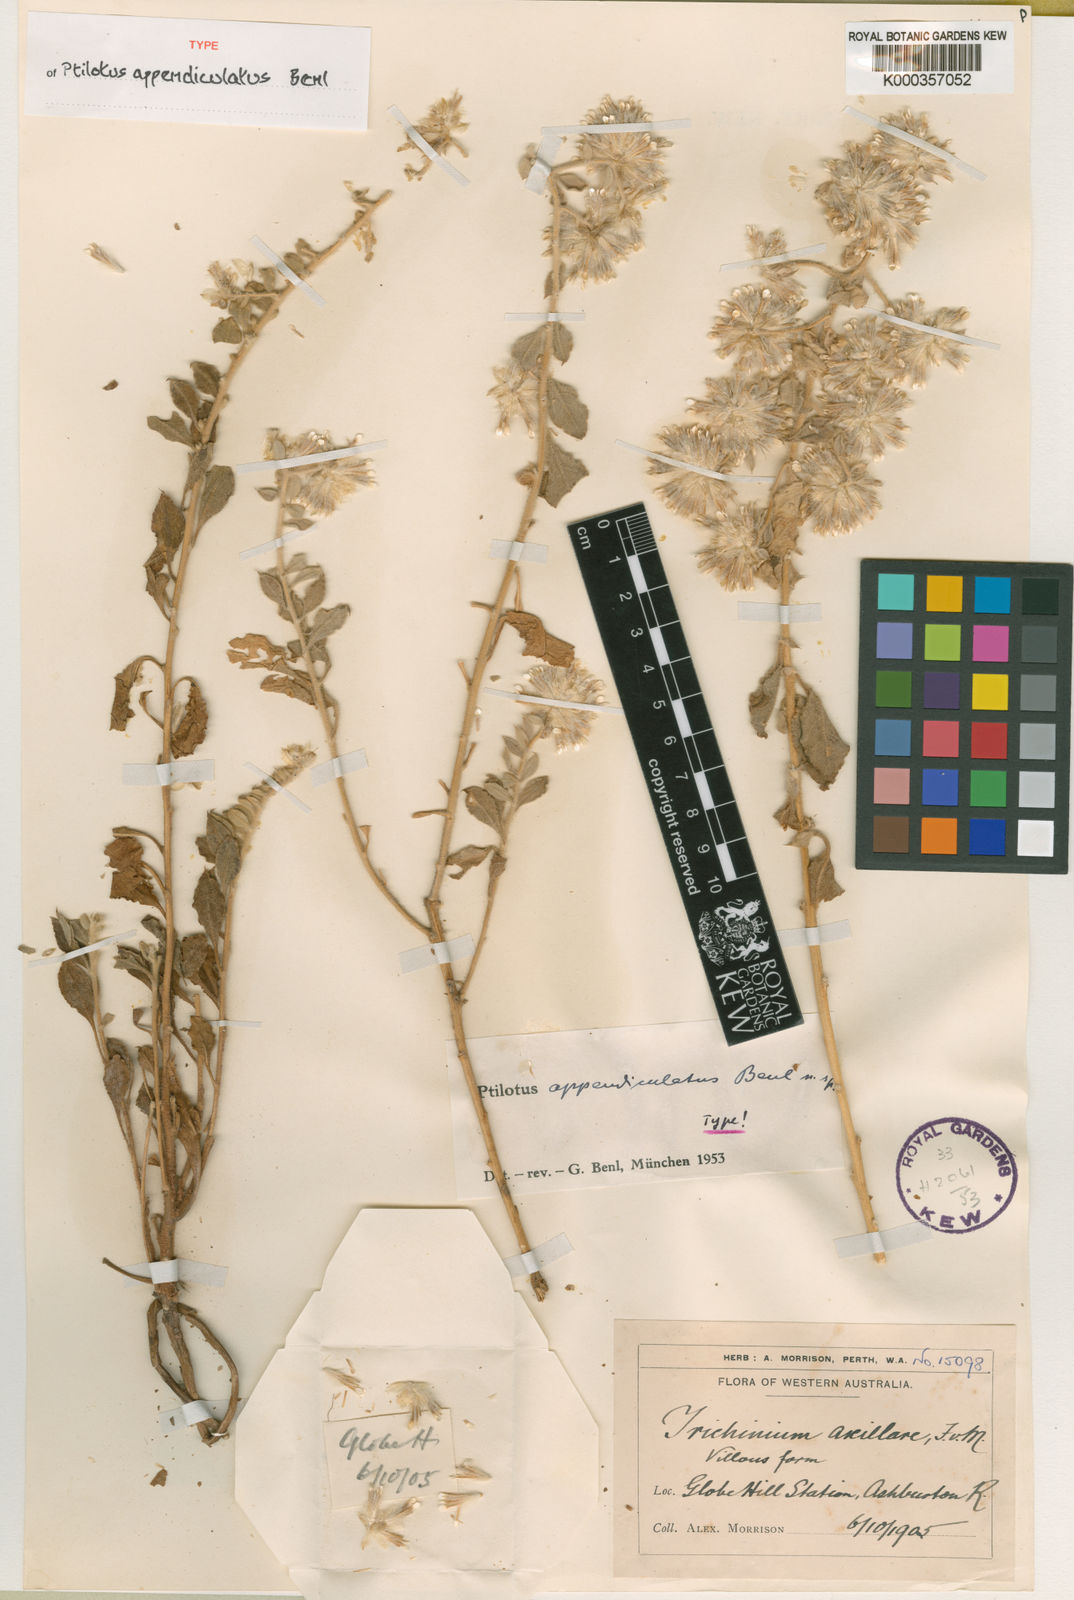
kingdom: Plantae
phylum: Tracheophyta
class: Magnoliopsida
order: Caryophyllales
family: Amaranthaceae
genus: Ptilotus
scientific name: Ptilotus axillaris
